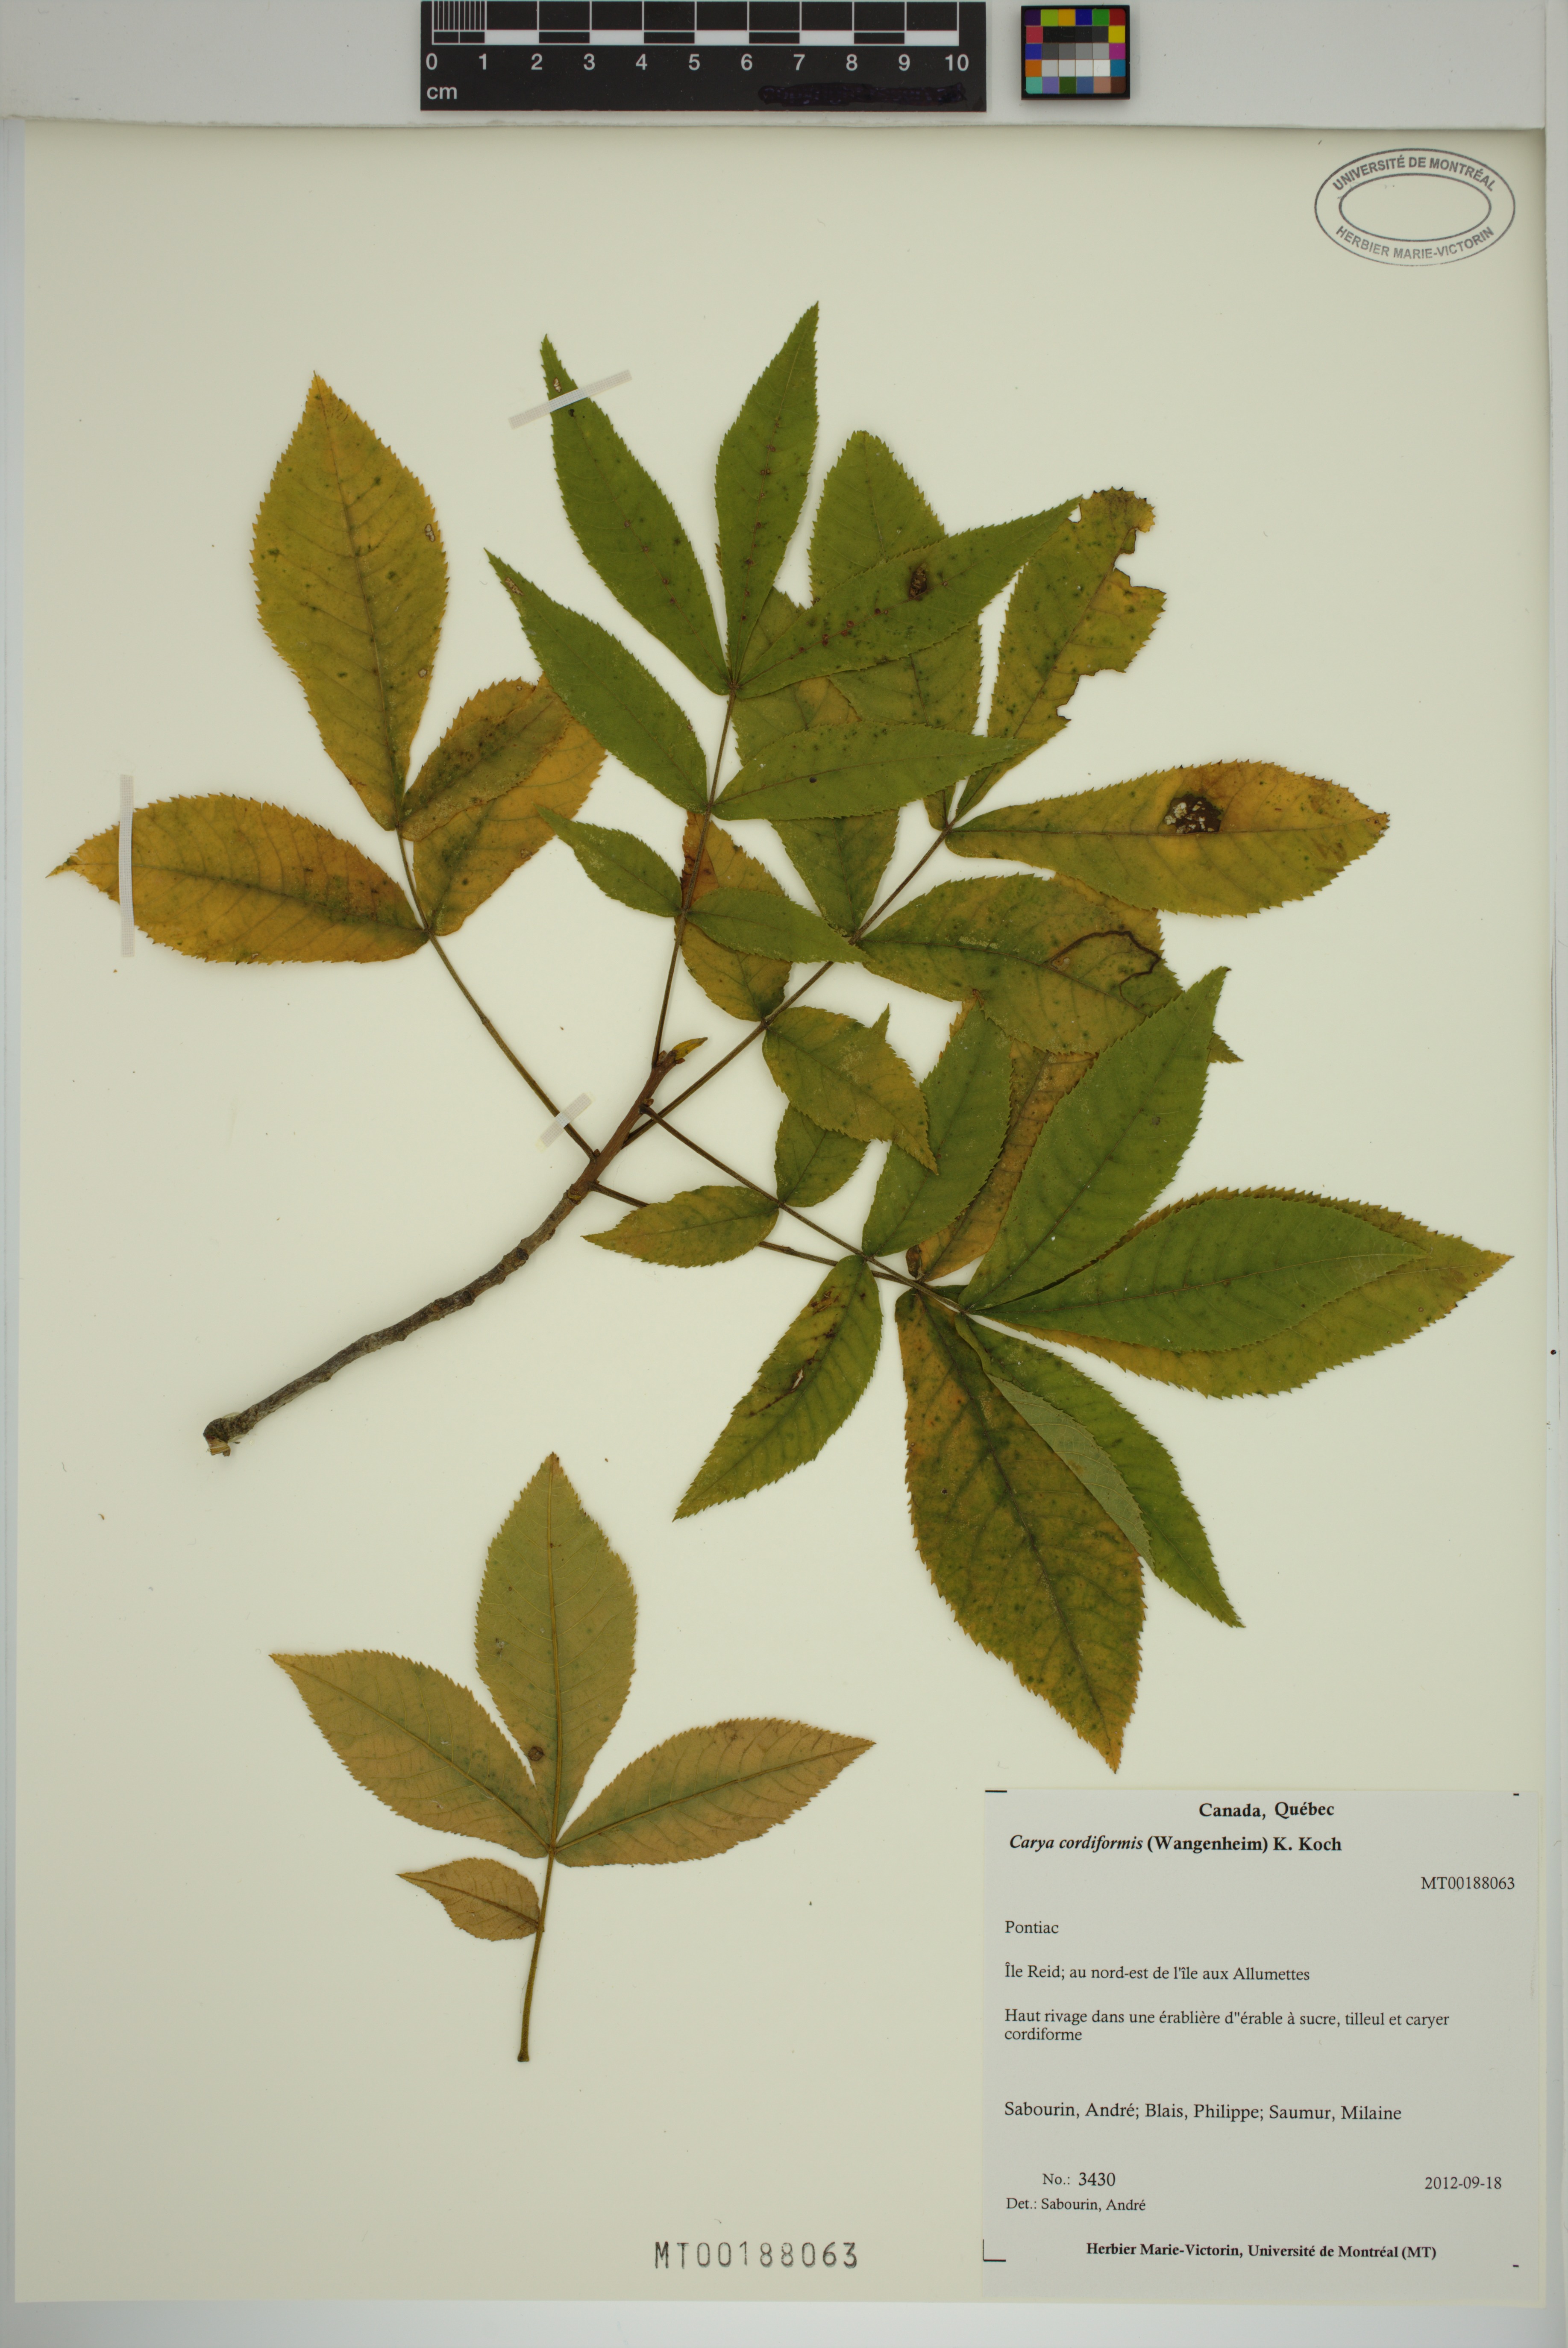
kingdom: Plantae
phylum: Tracheophyta
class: Magnoliopsida
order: Fagales
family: Juglandaceae
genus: Carya
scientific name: Carya cordiformis
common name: Bitternut hickory
